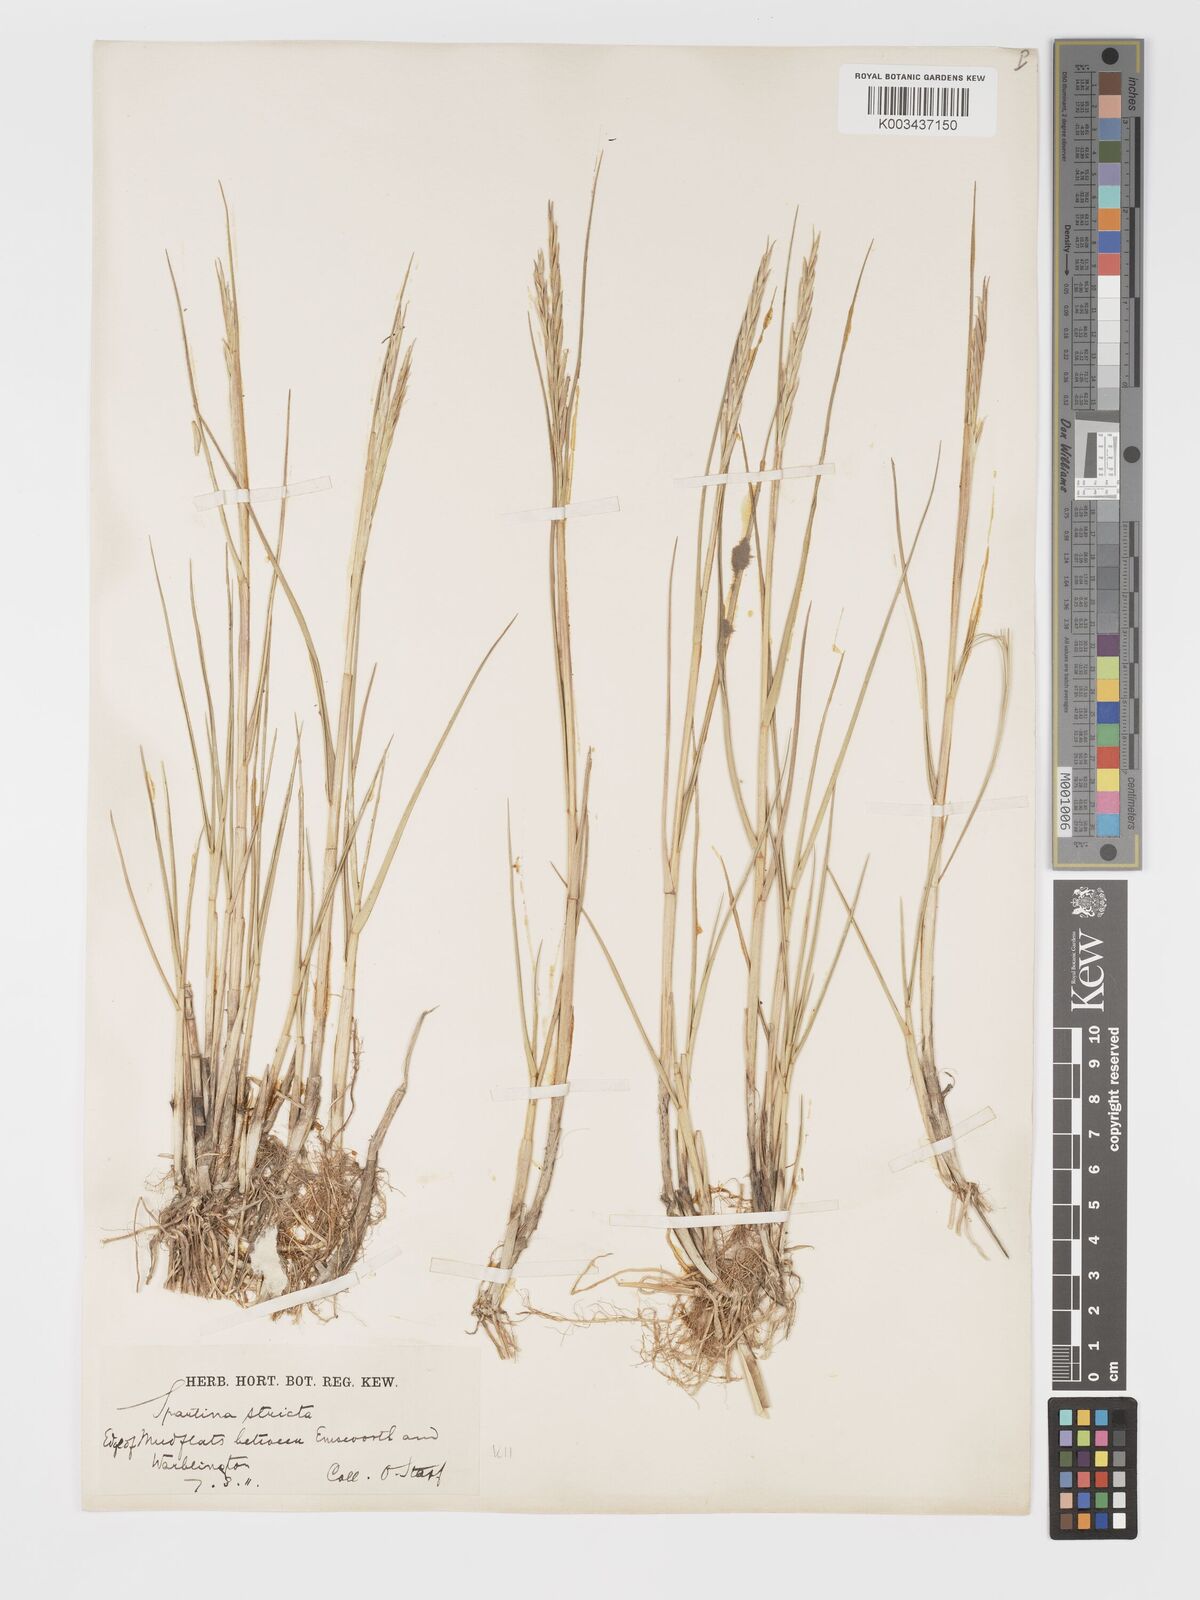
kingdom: Plantae
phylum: Tracheophyta
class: Liliopsida
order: Poales
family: Poaceae
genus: Sporobolus
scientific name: Sporobolus maritimus
